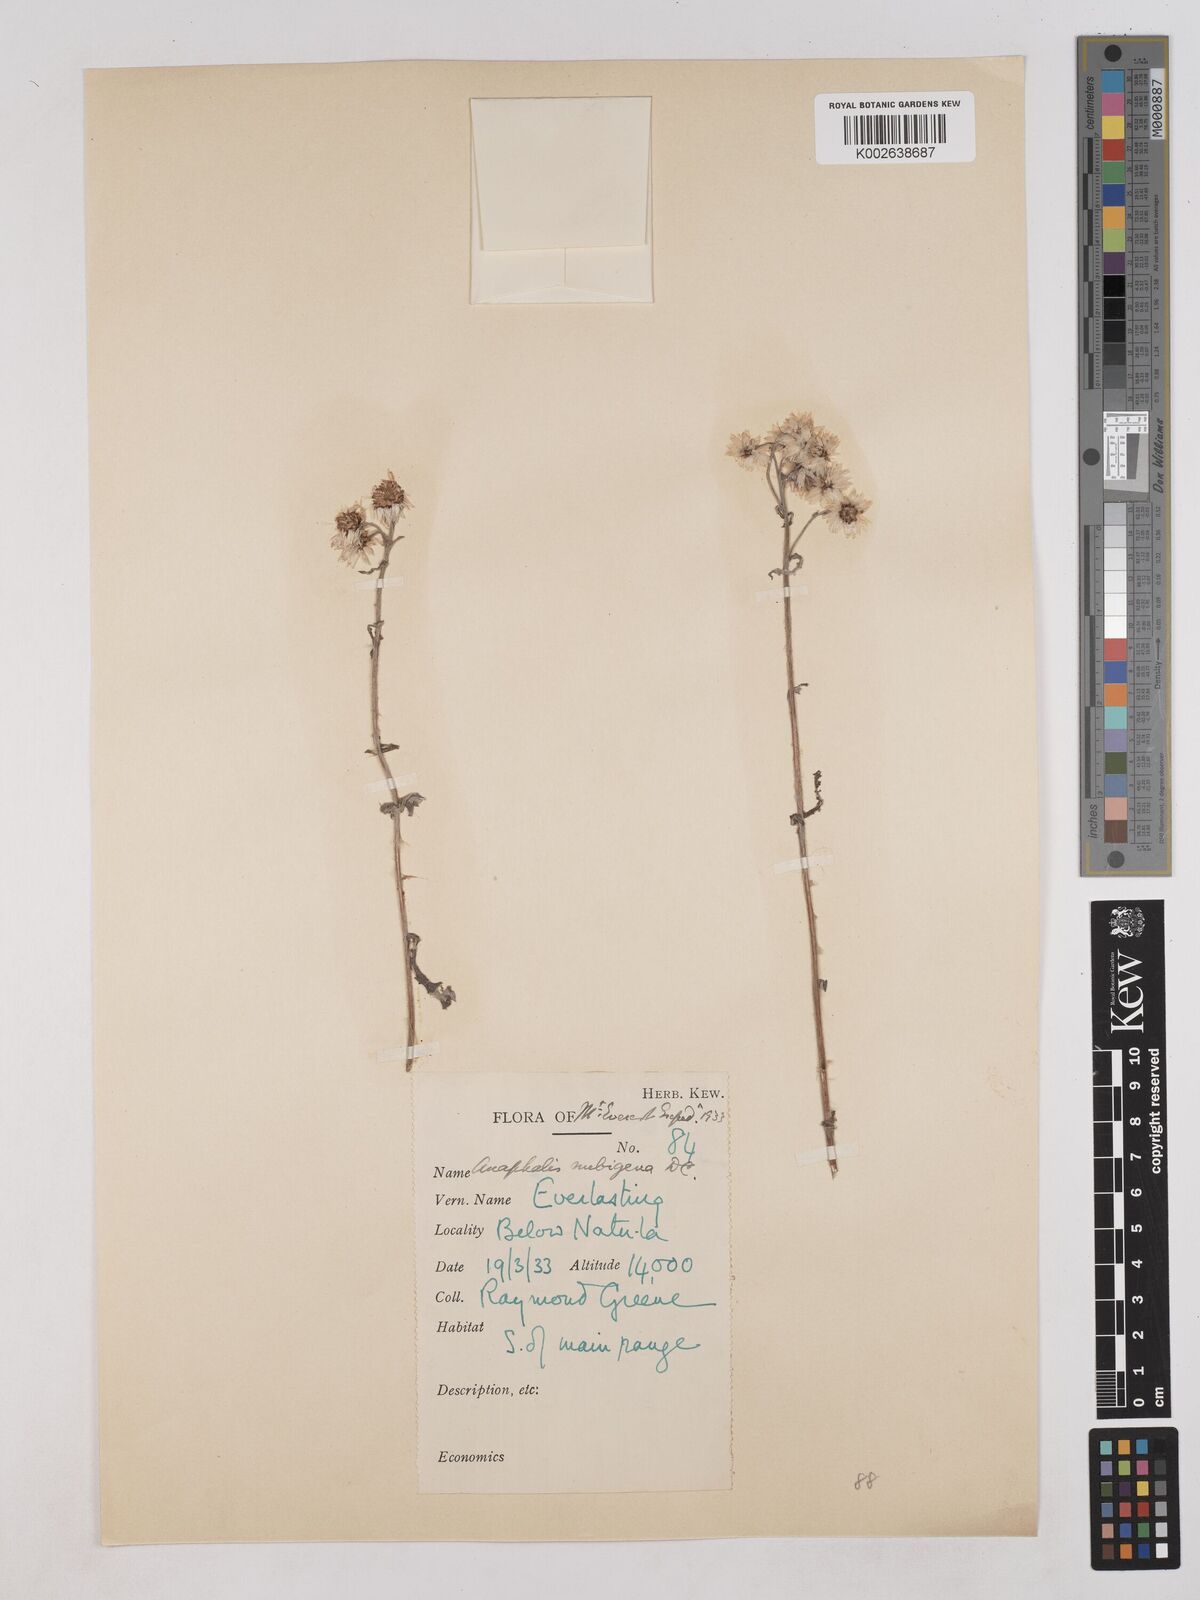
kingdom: Plantae
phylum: Tracheophyta
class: Magnoliopsida
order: Asterales
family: Asteraceae
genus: Anaphalis
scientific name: Anaphalis nepalensis
